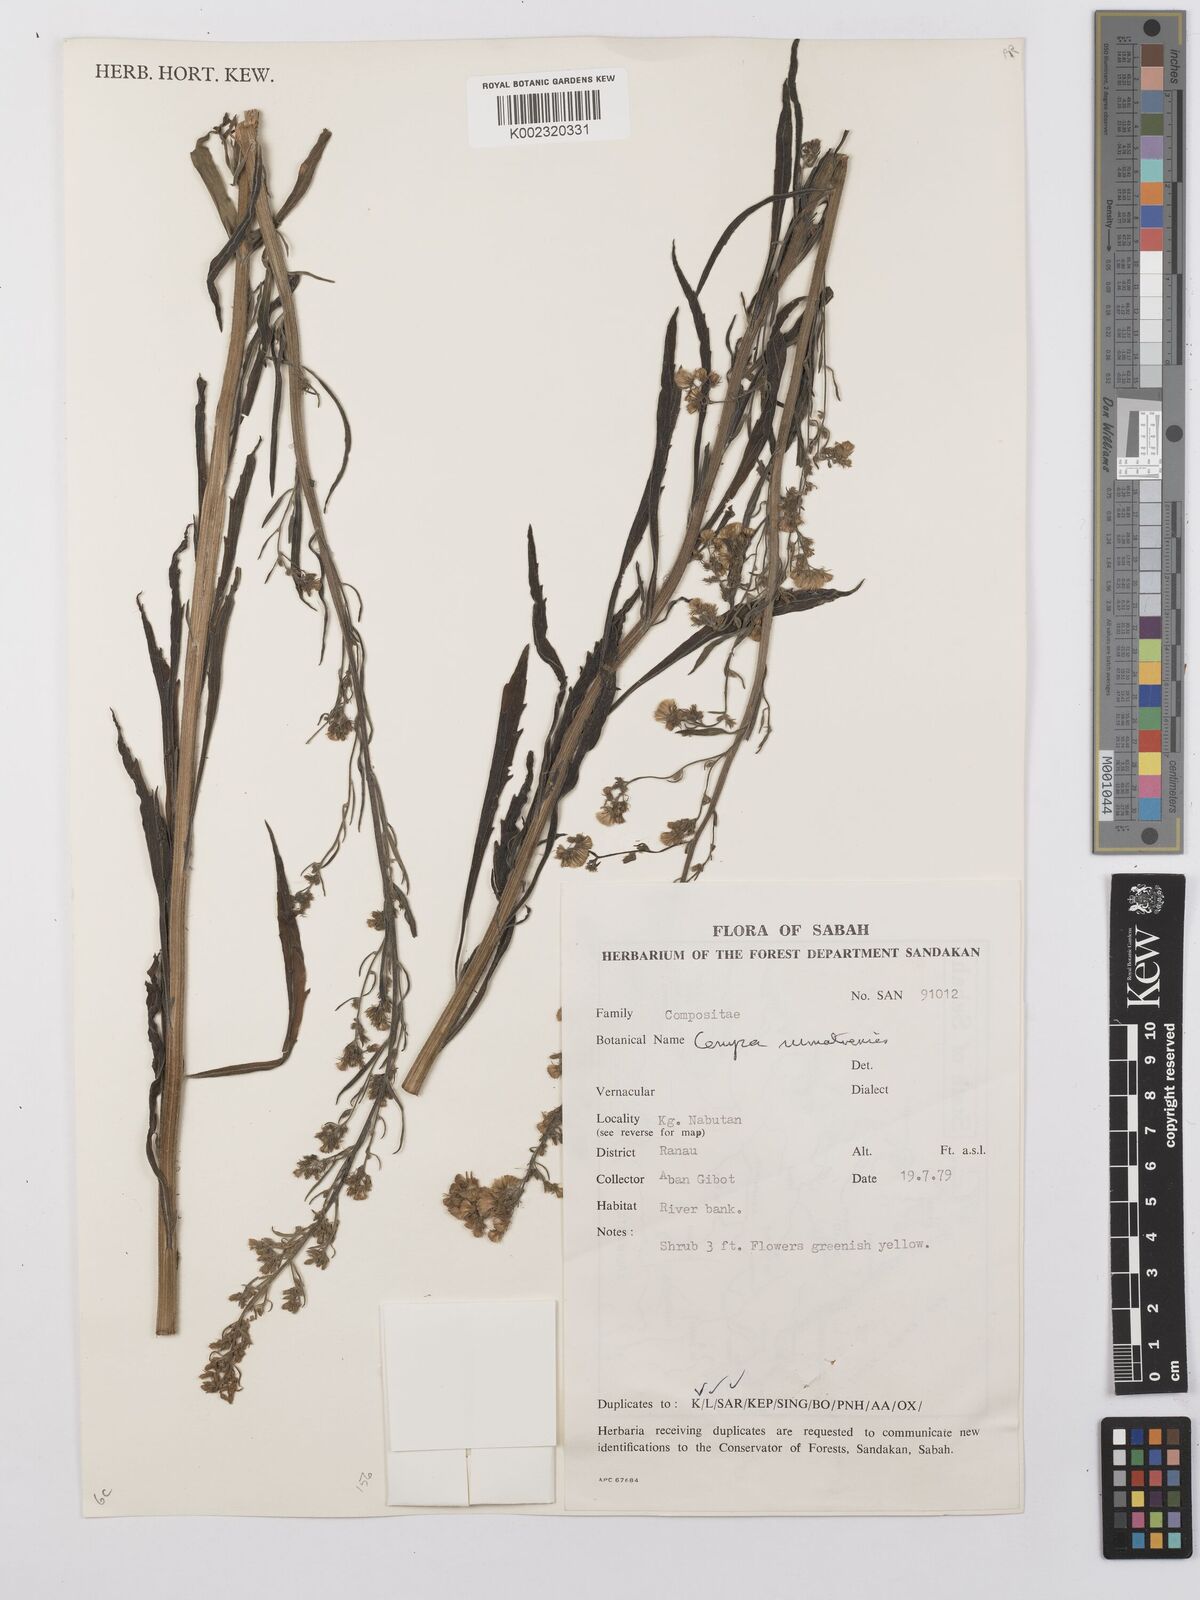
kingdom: Plantae
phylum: Tracheophyta
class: Magnoliopsida
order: Asterales
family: Asteraceae
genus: Erigeron
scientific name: Erigeron sumatrensis
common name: Daisy
